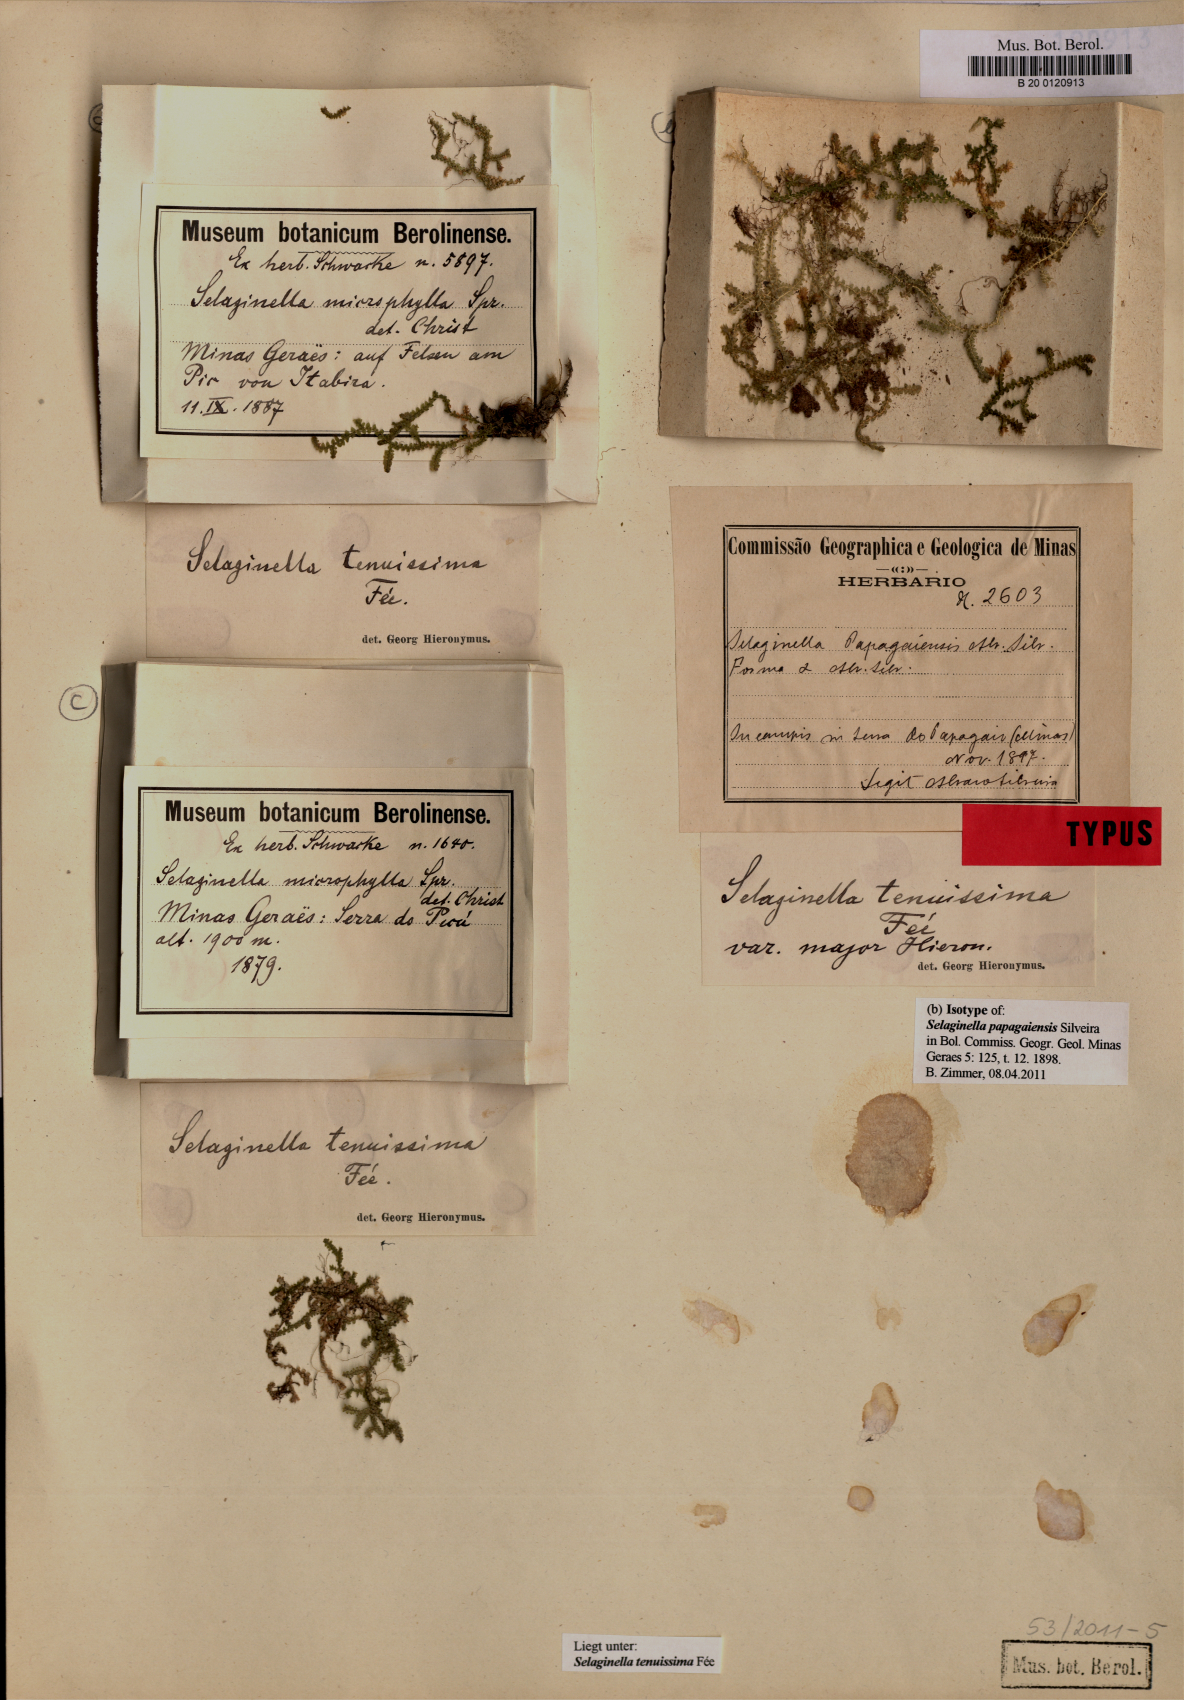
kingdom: Plantae
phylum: Tracheophyta
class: Lycopodiopsida
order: Selaginellales
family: Selaginellaceae
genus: Selaginella
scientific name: Selaginella tenuissima
